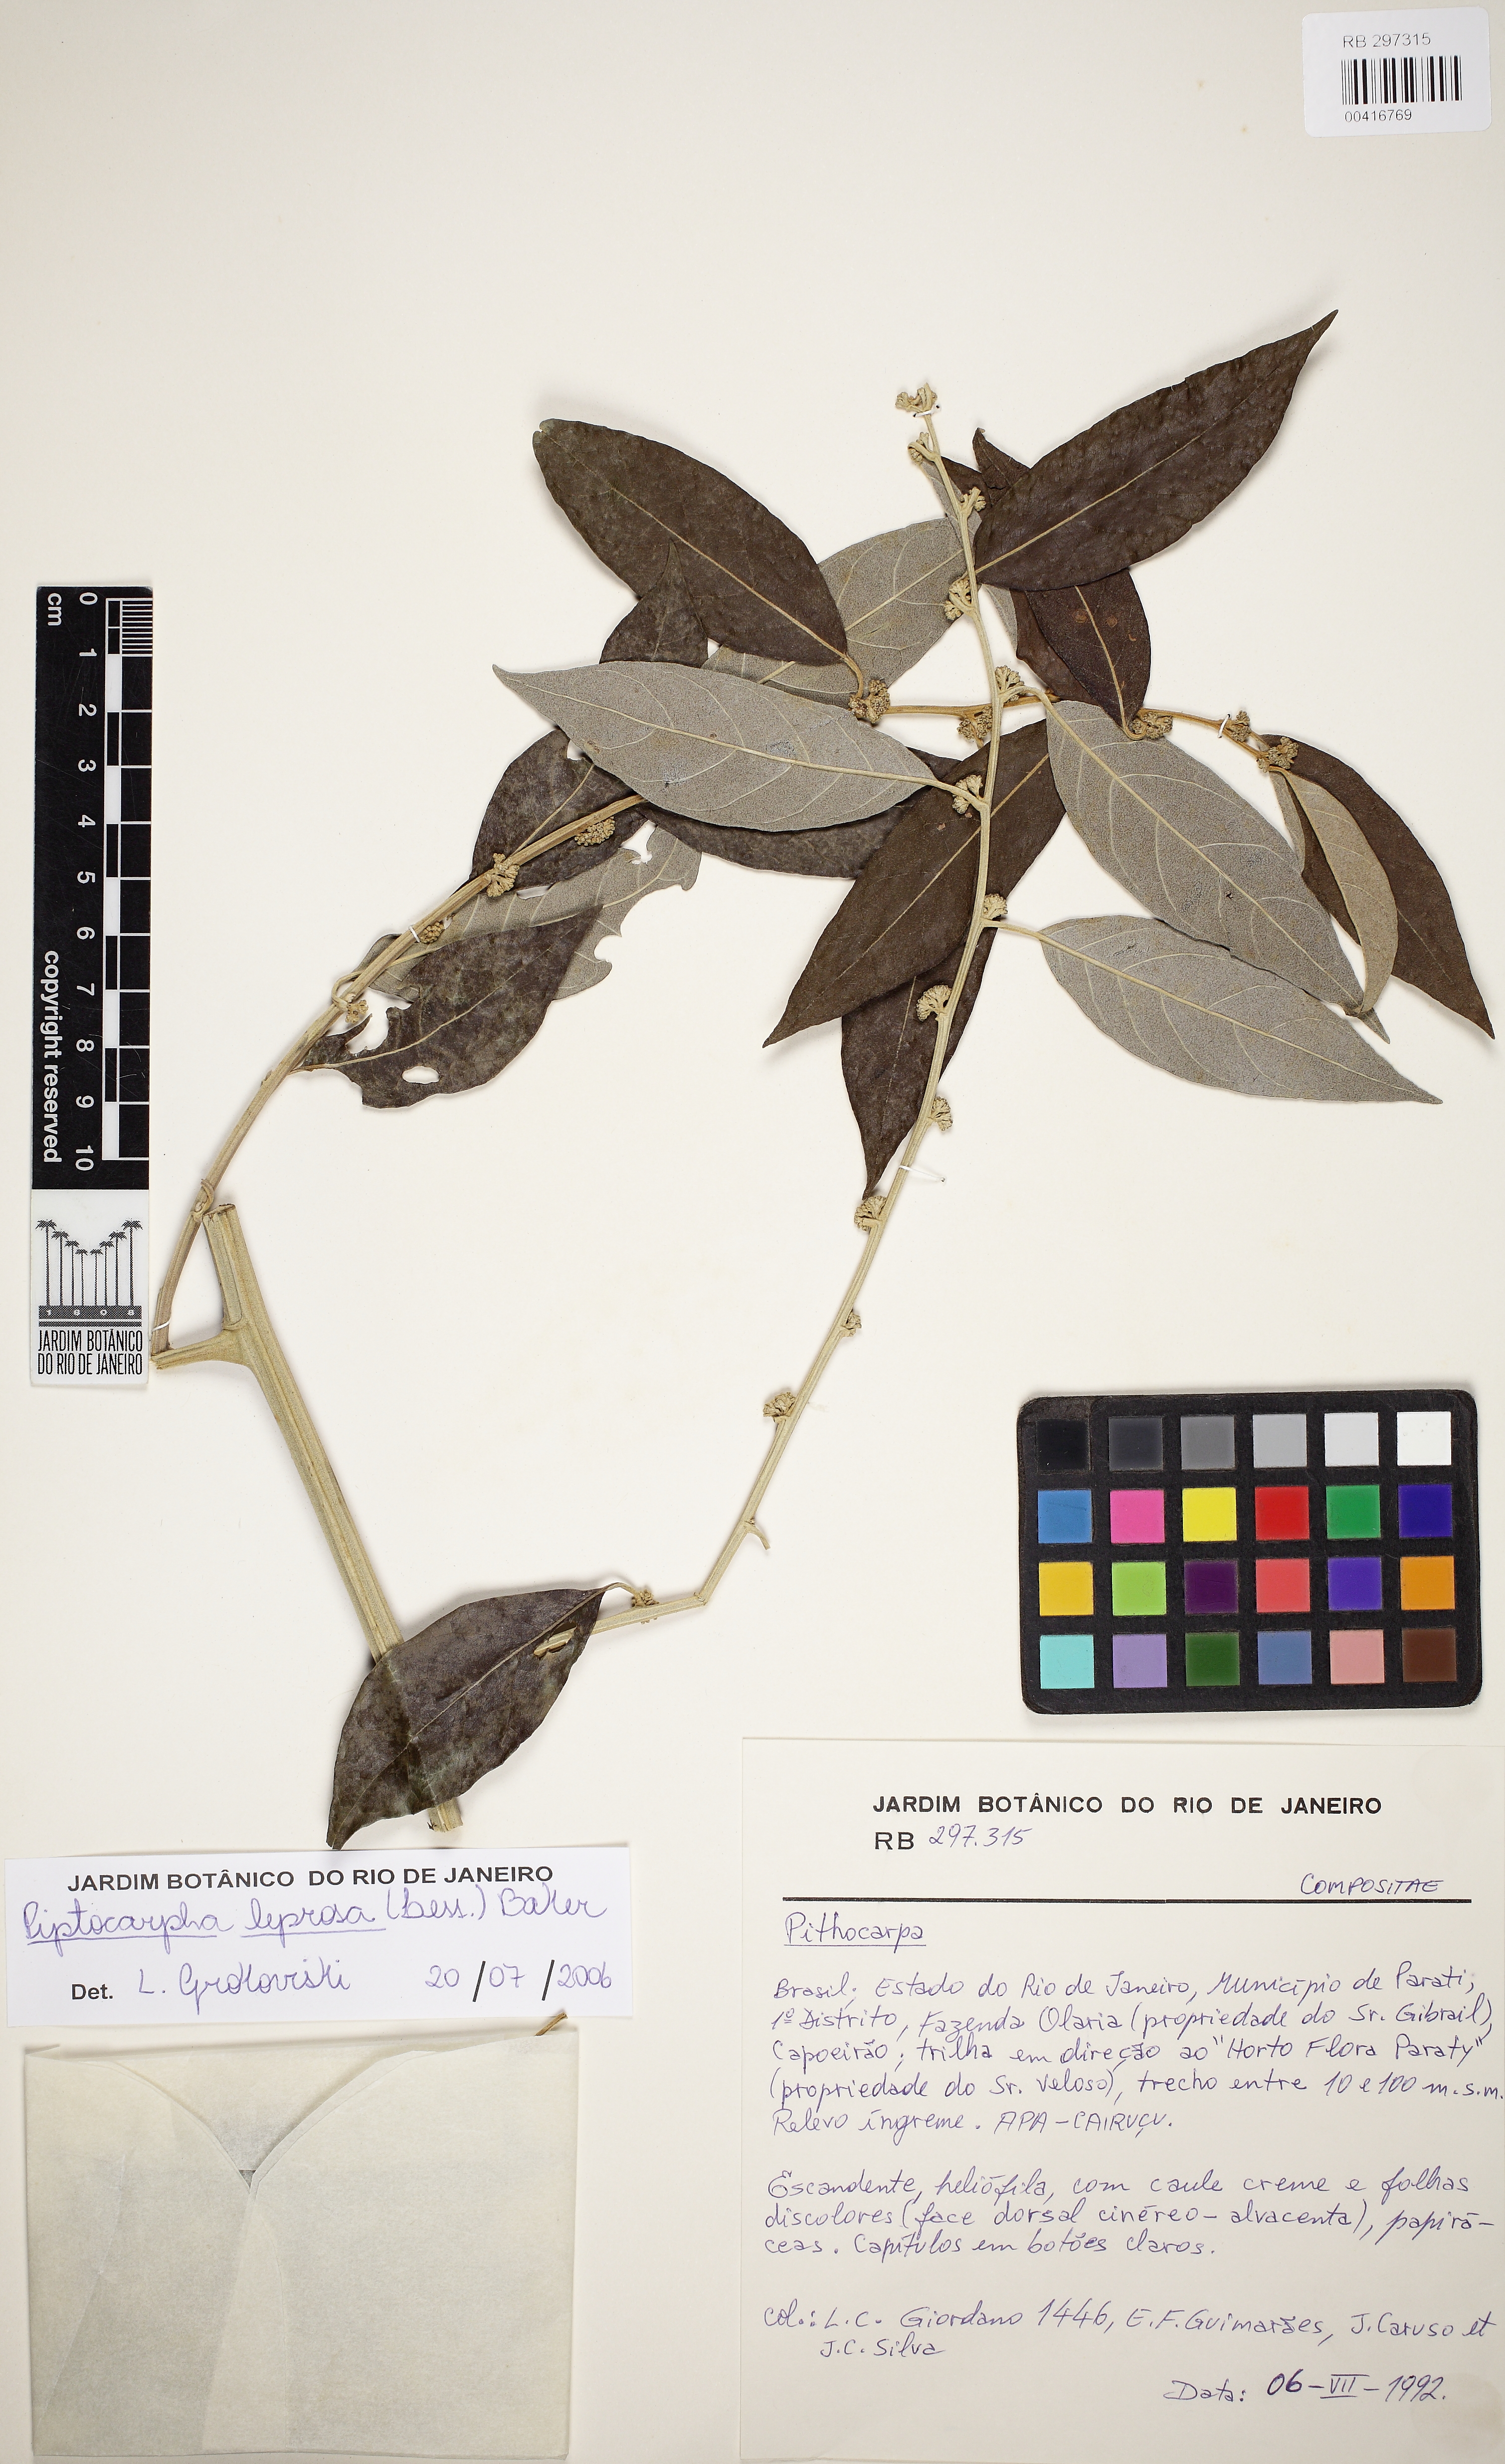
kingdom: Plantae
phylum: Tracheophyta
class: Magnoliopsida
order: Asterales
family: Asteraceae
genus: Piptocarpha
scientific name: Piptocarpha leprosa
